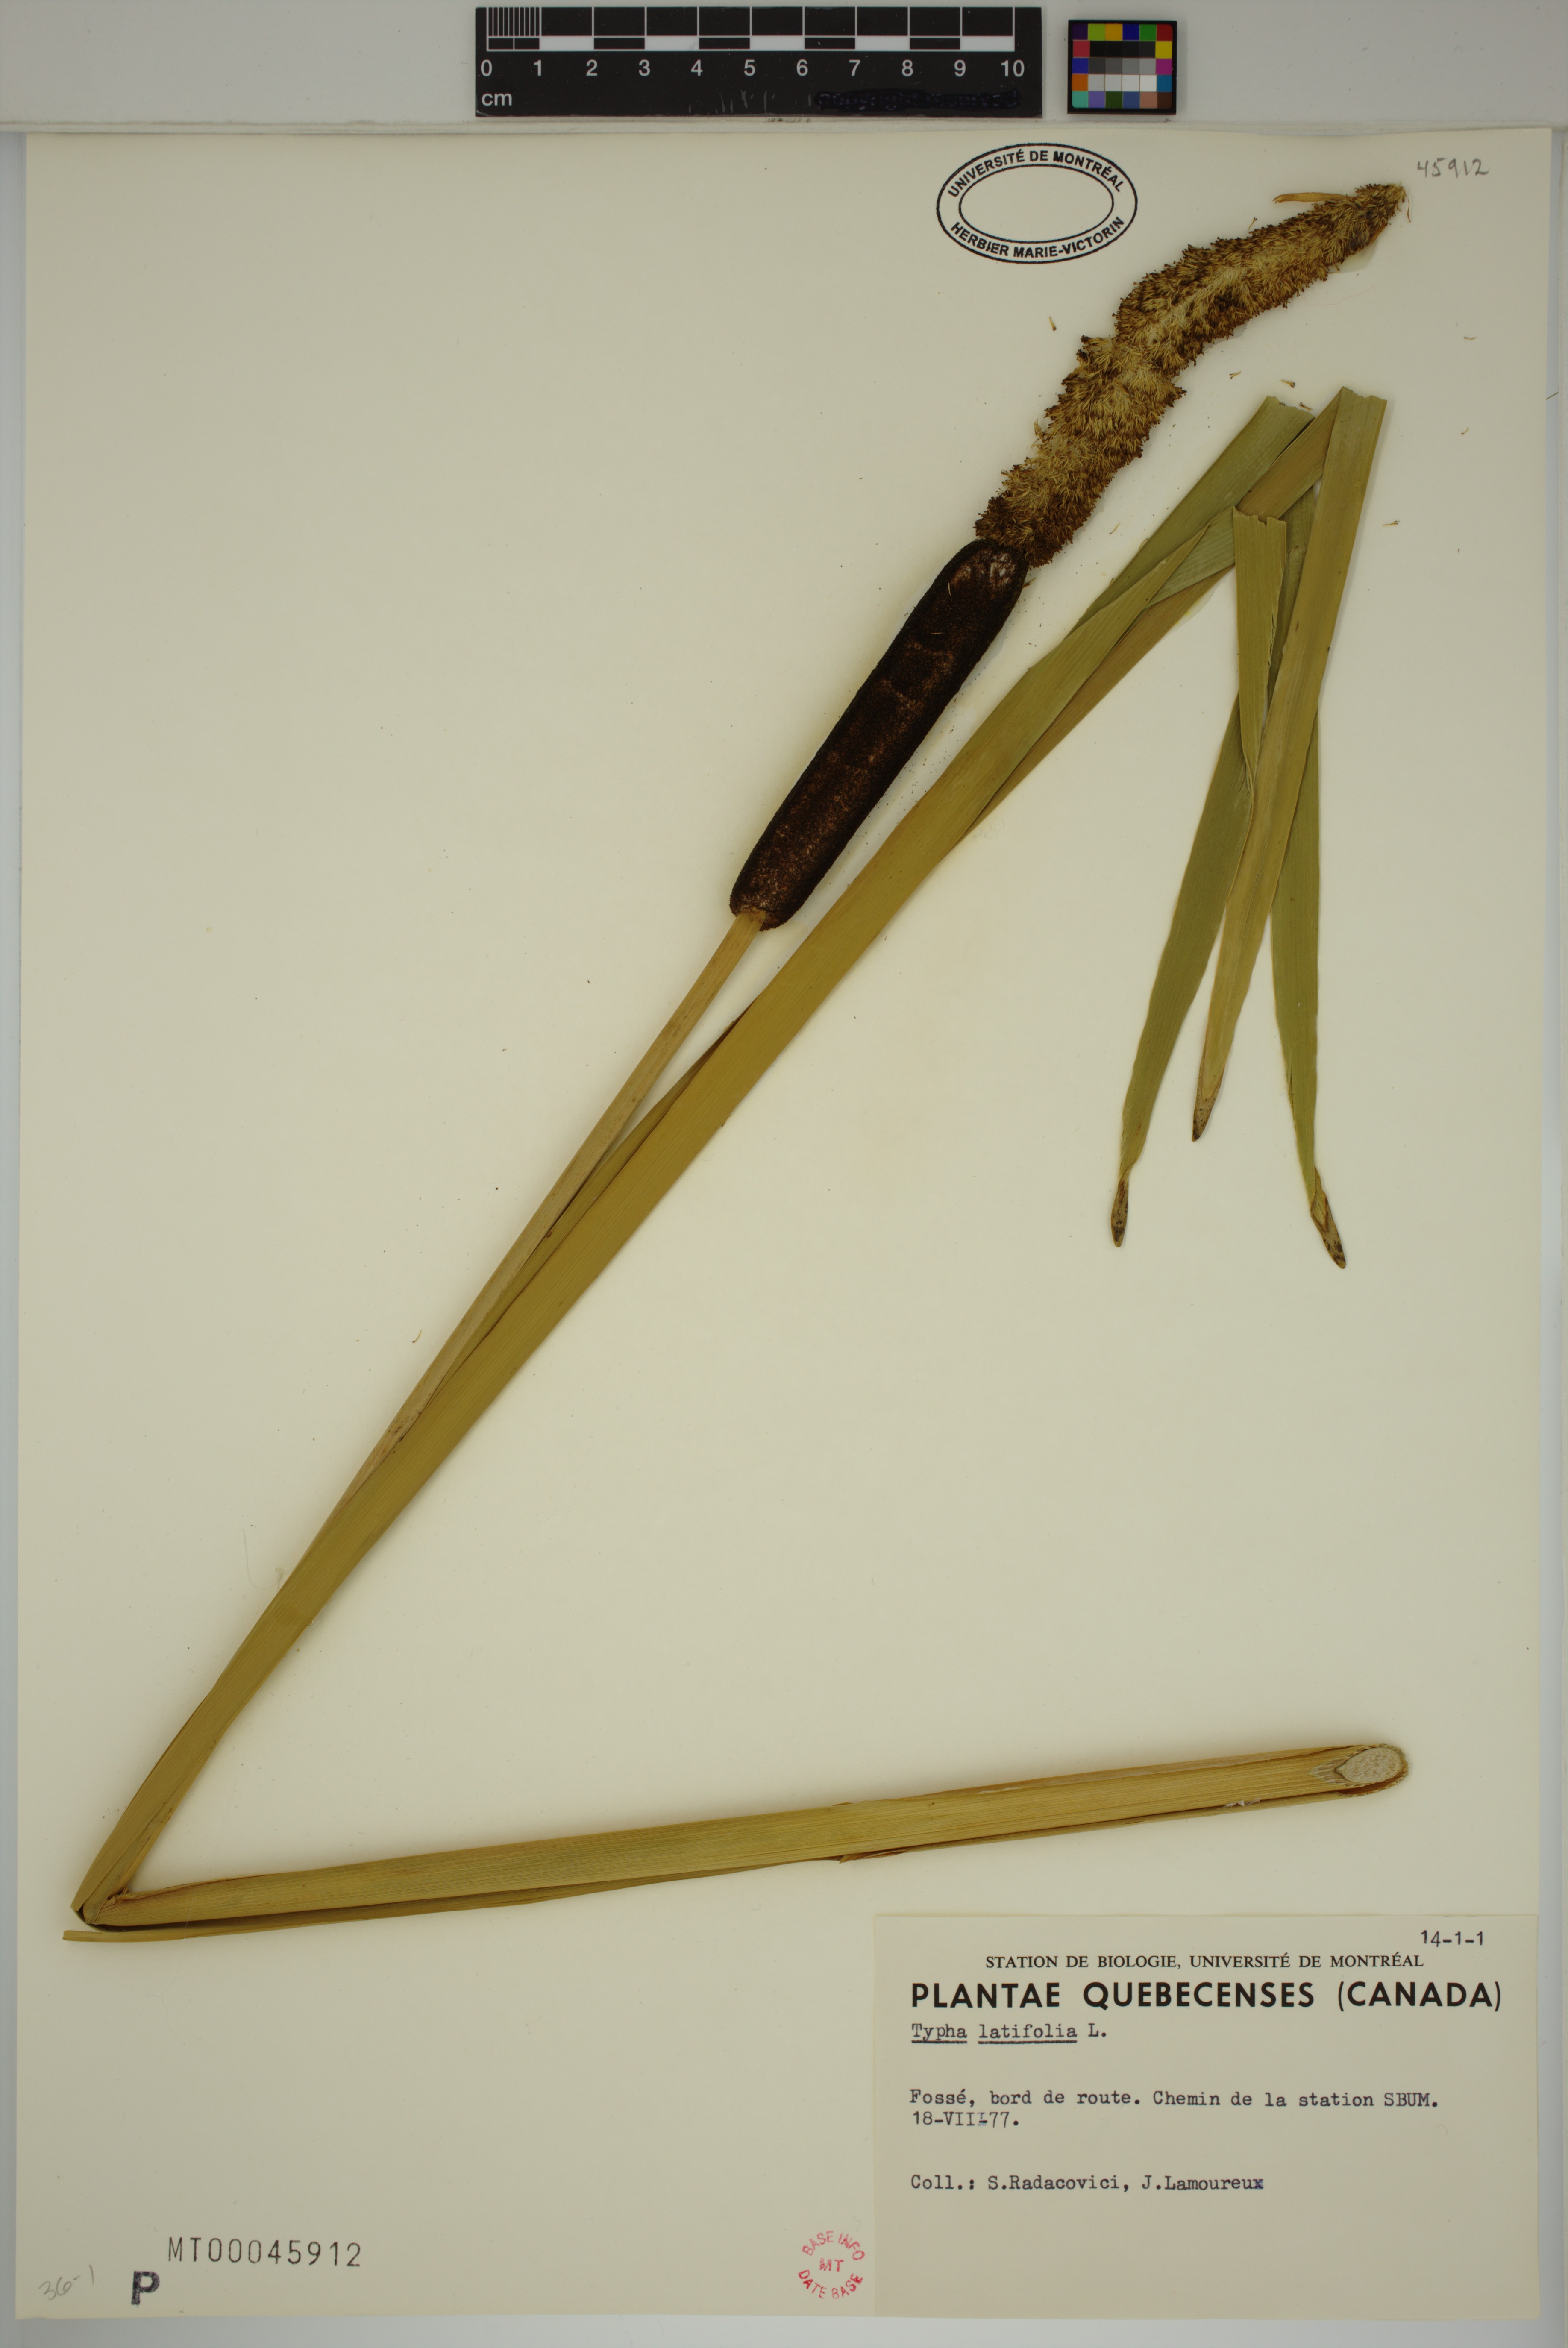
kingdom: Plantae
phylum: Tracheophyta
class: Liliopsida
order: Poales
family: Typhaceae
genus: Typha
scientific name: Typha latifolia
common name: Broadleaf cattail
